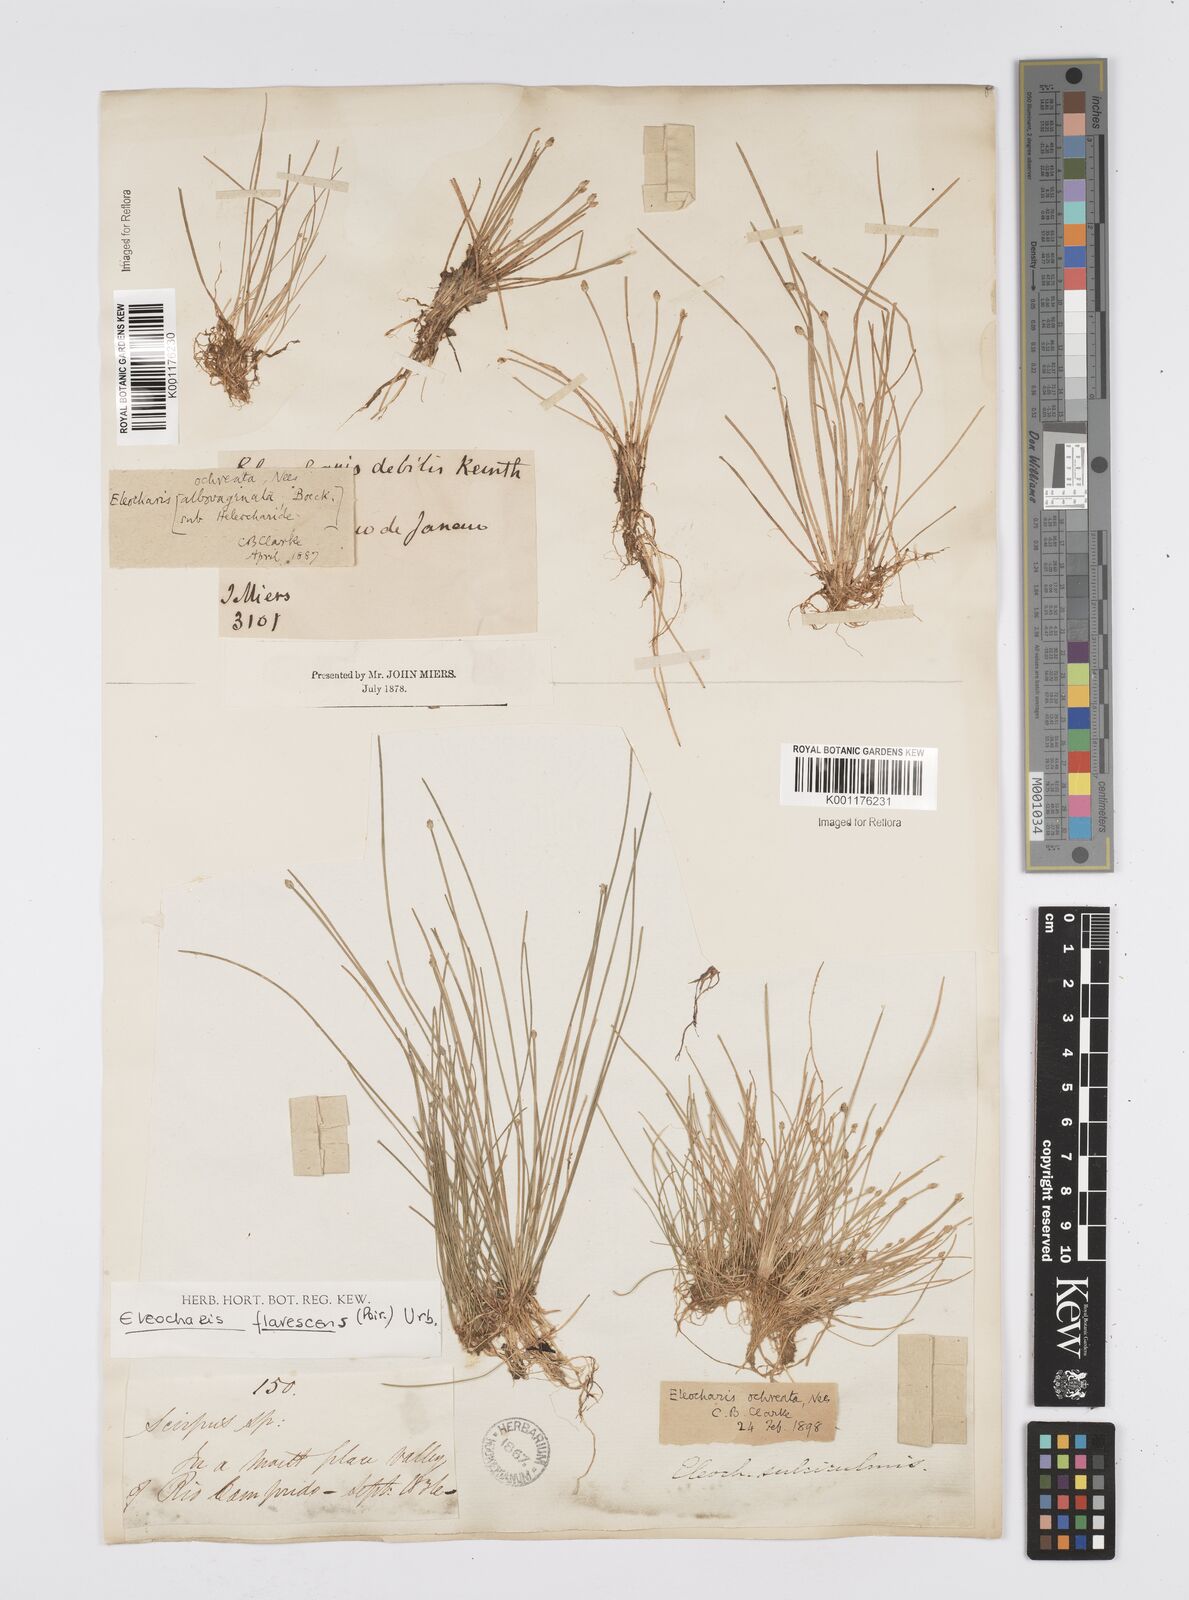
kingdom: Plantae
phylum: Tracheophyta
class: Liliopsida
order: Poales
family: Cyperaceae
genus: Eleocharis
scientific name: Eleocharis flavescens
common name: Yellow spikerush
